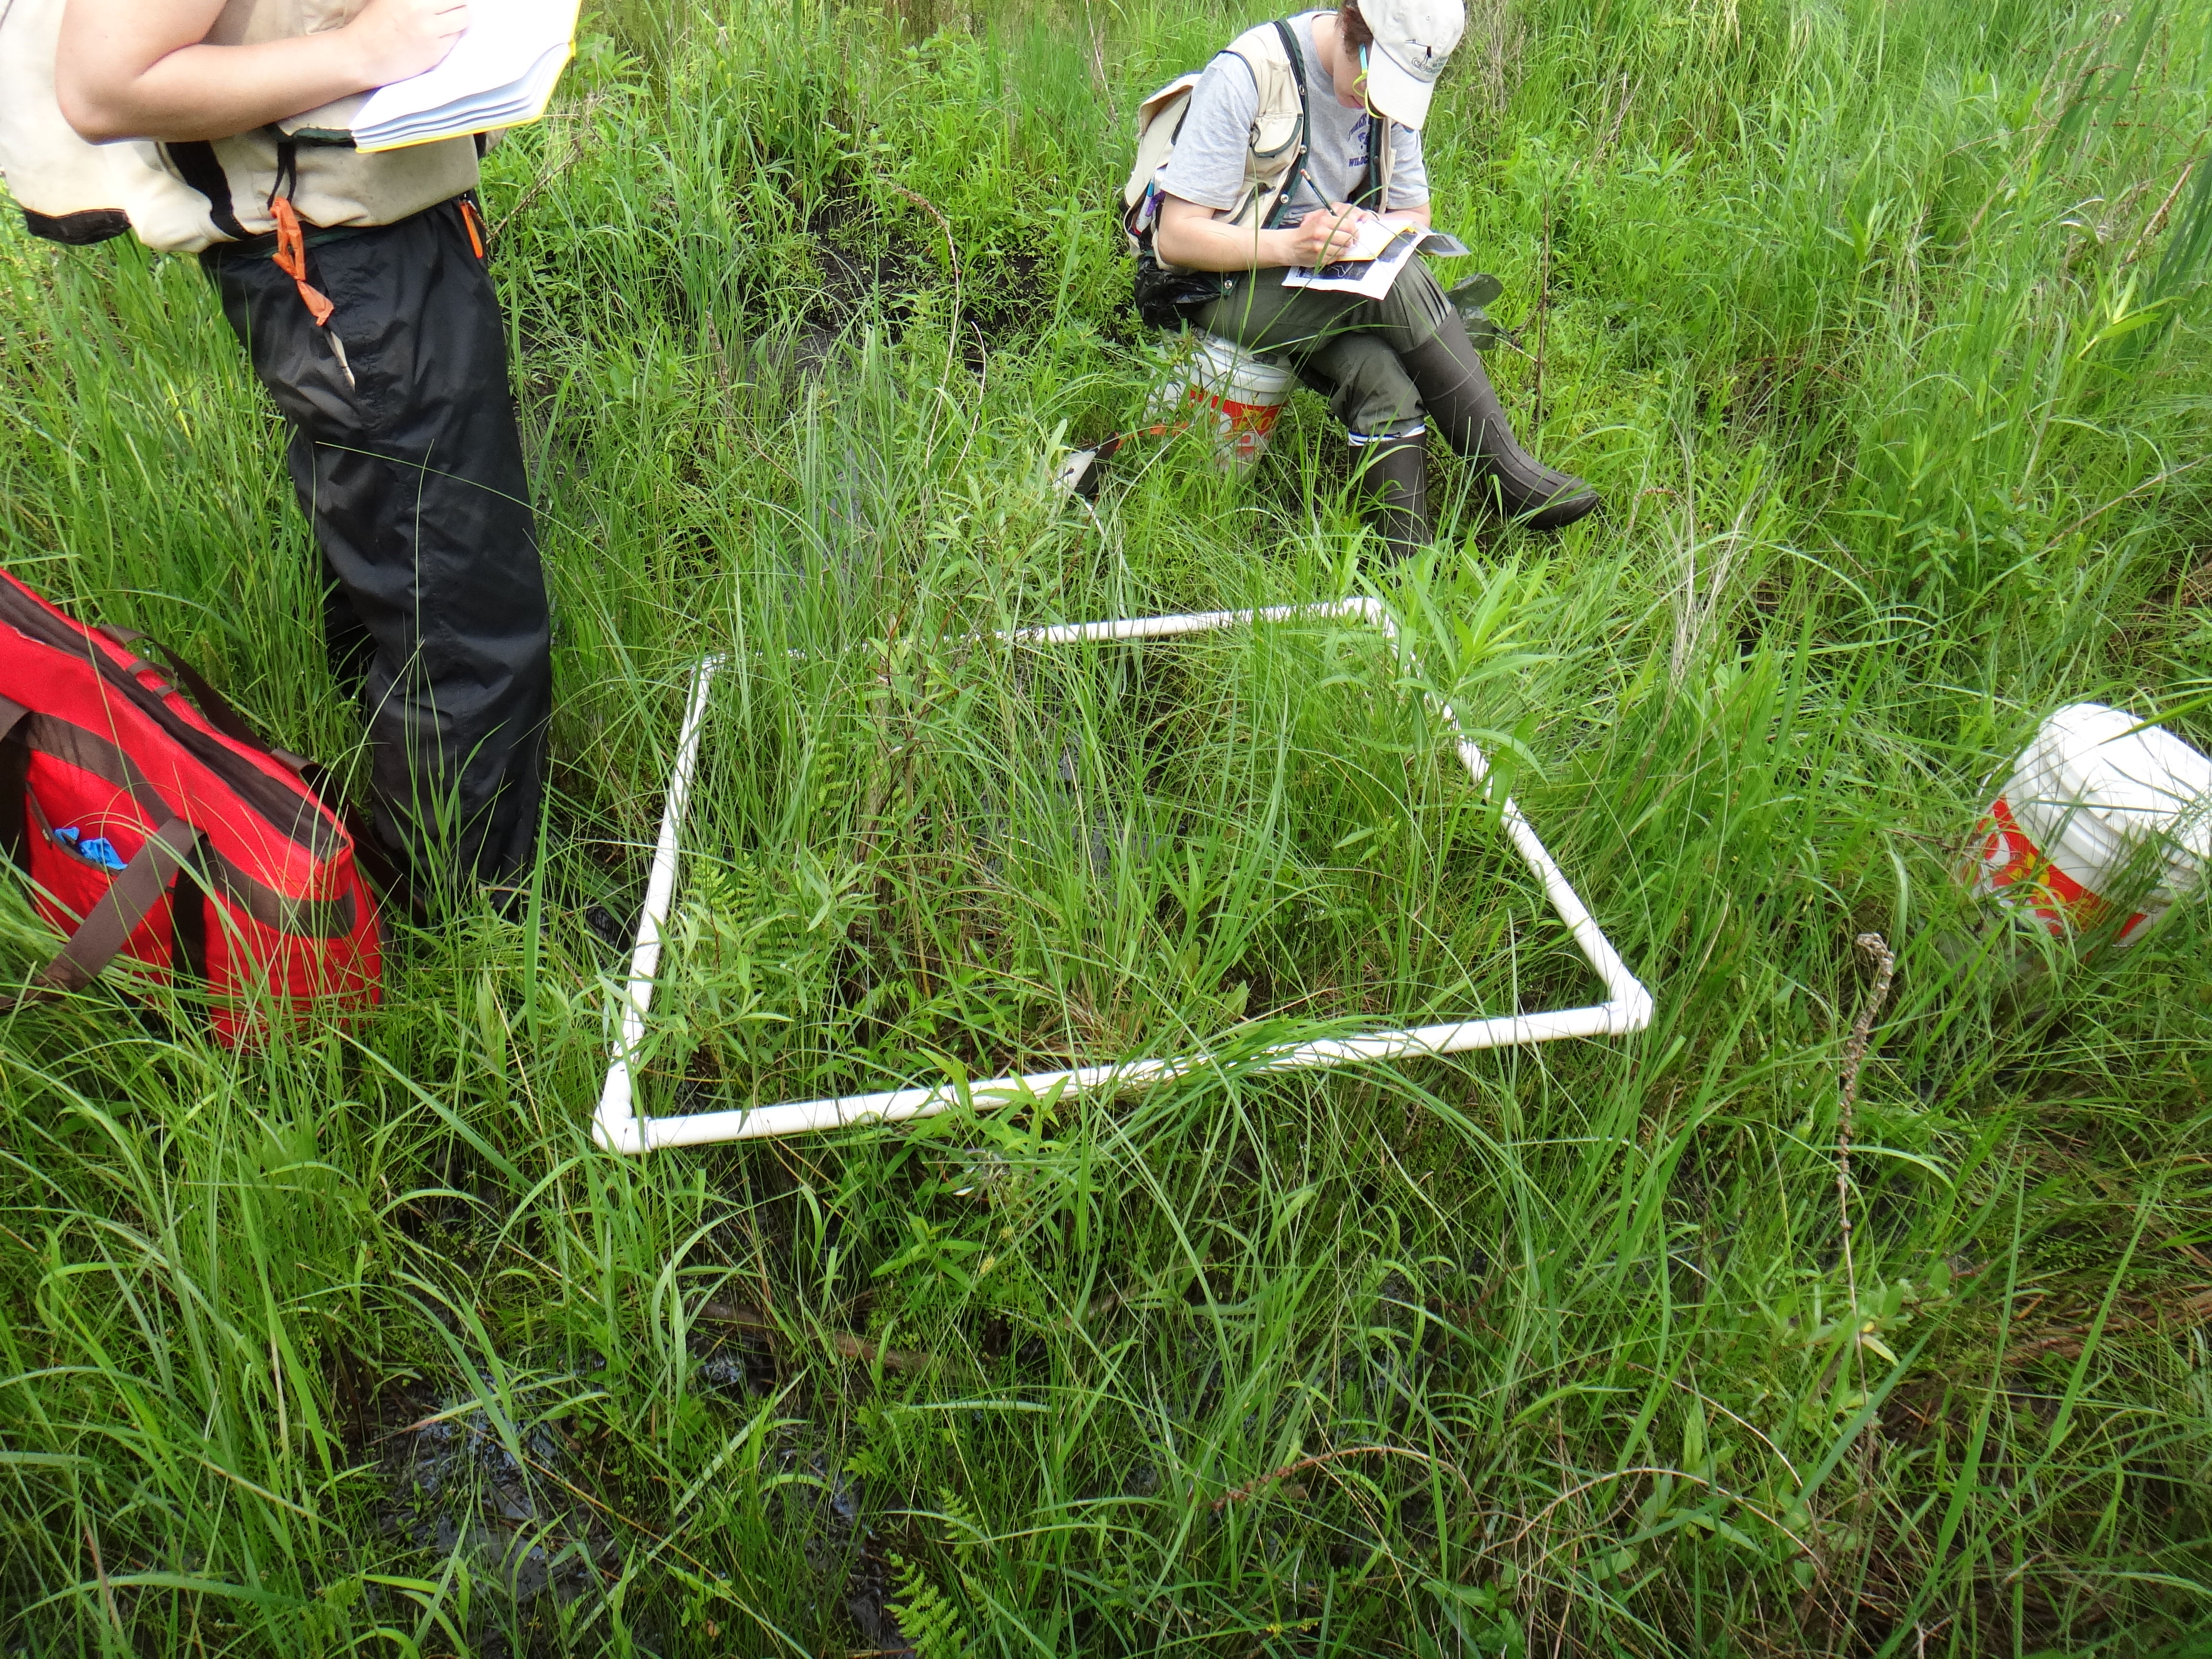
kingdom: Plantae
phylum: Tracheophyta
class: Polypodiopsida
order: Polypodiales
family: Thelypteridaceae
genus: Thelypteris
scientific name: Thelypteris palustris
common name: Marsh fern
